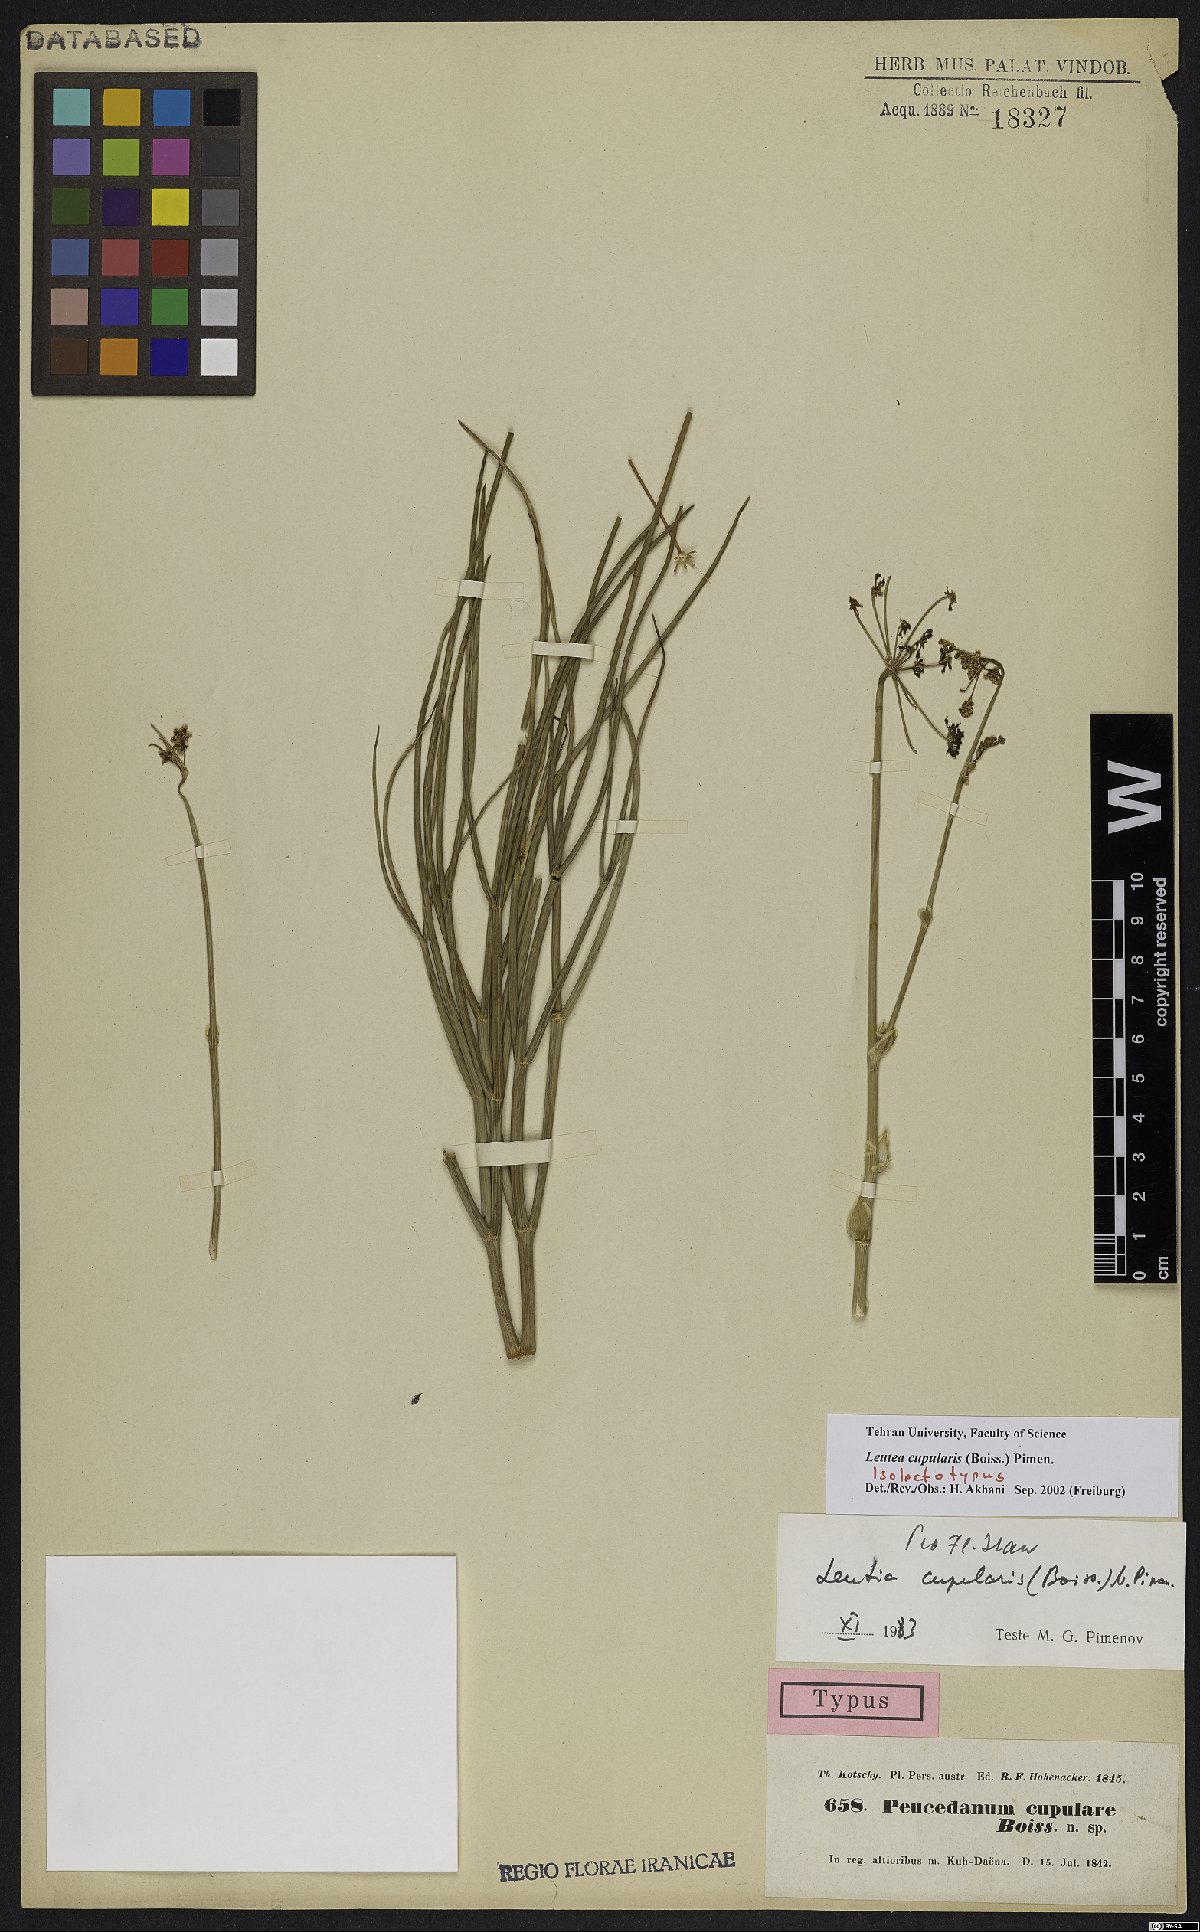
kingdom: Plantae
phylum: Tracheophyta
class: Magnoliopsida
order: Apiales
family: Apiaceae
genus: Ferula
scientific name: Ferula cupularis
